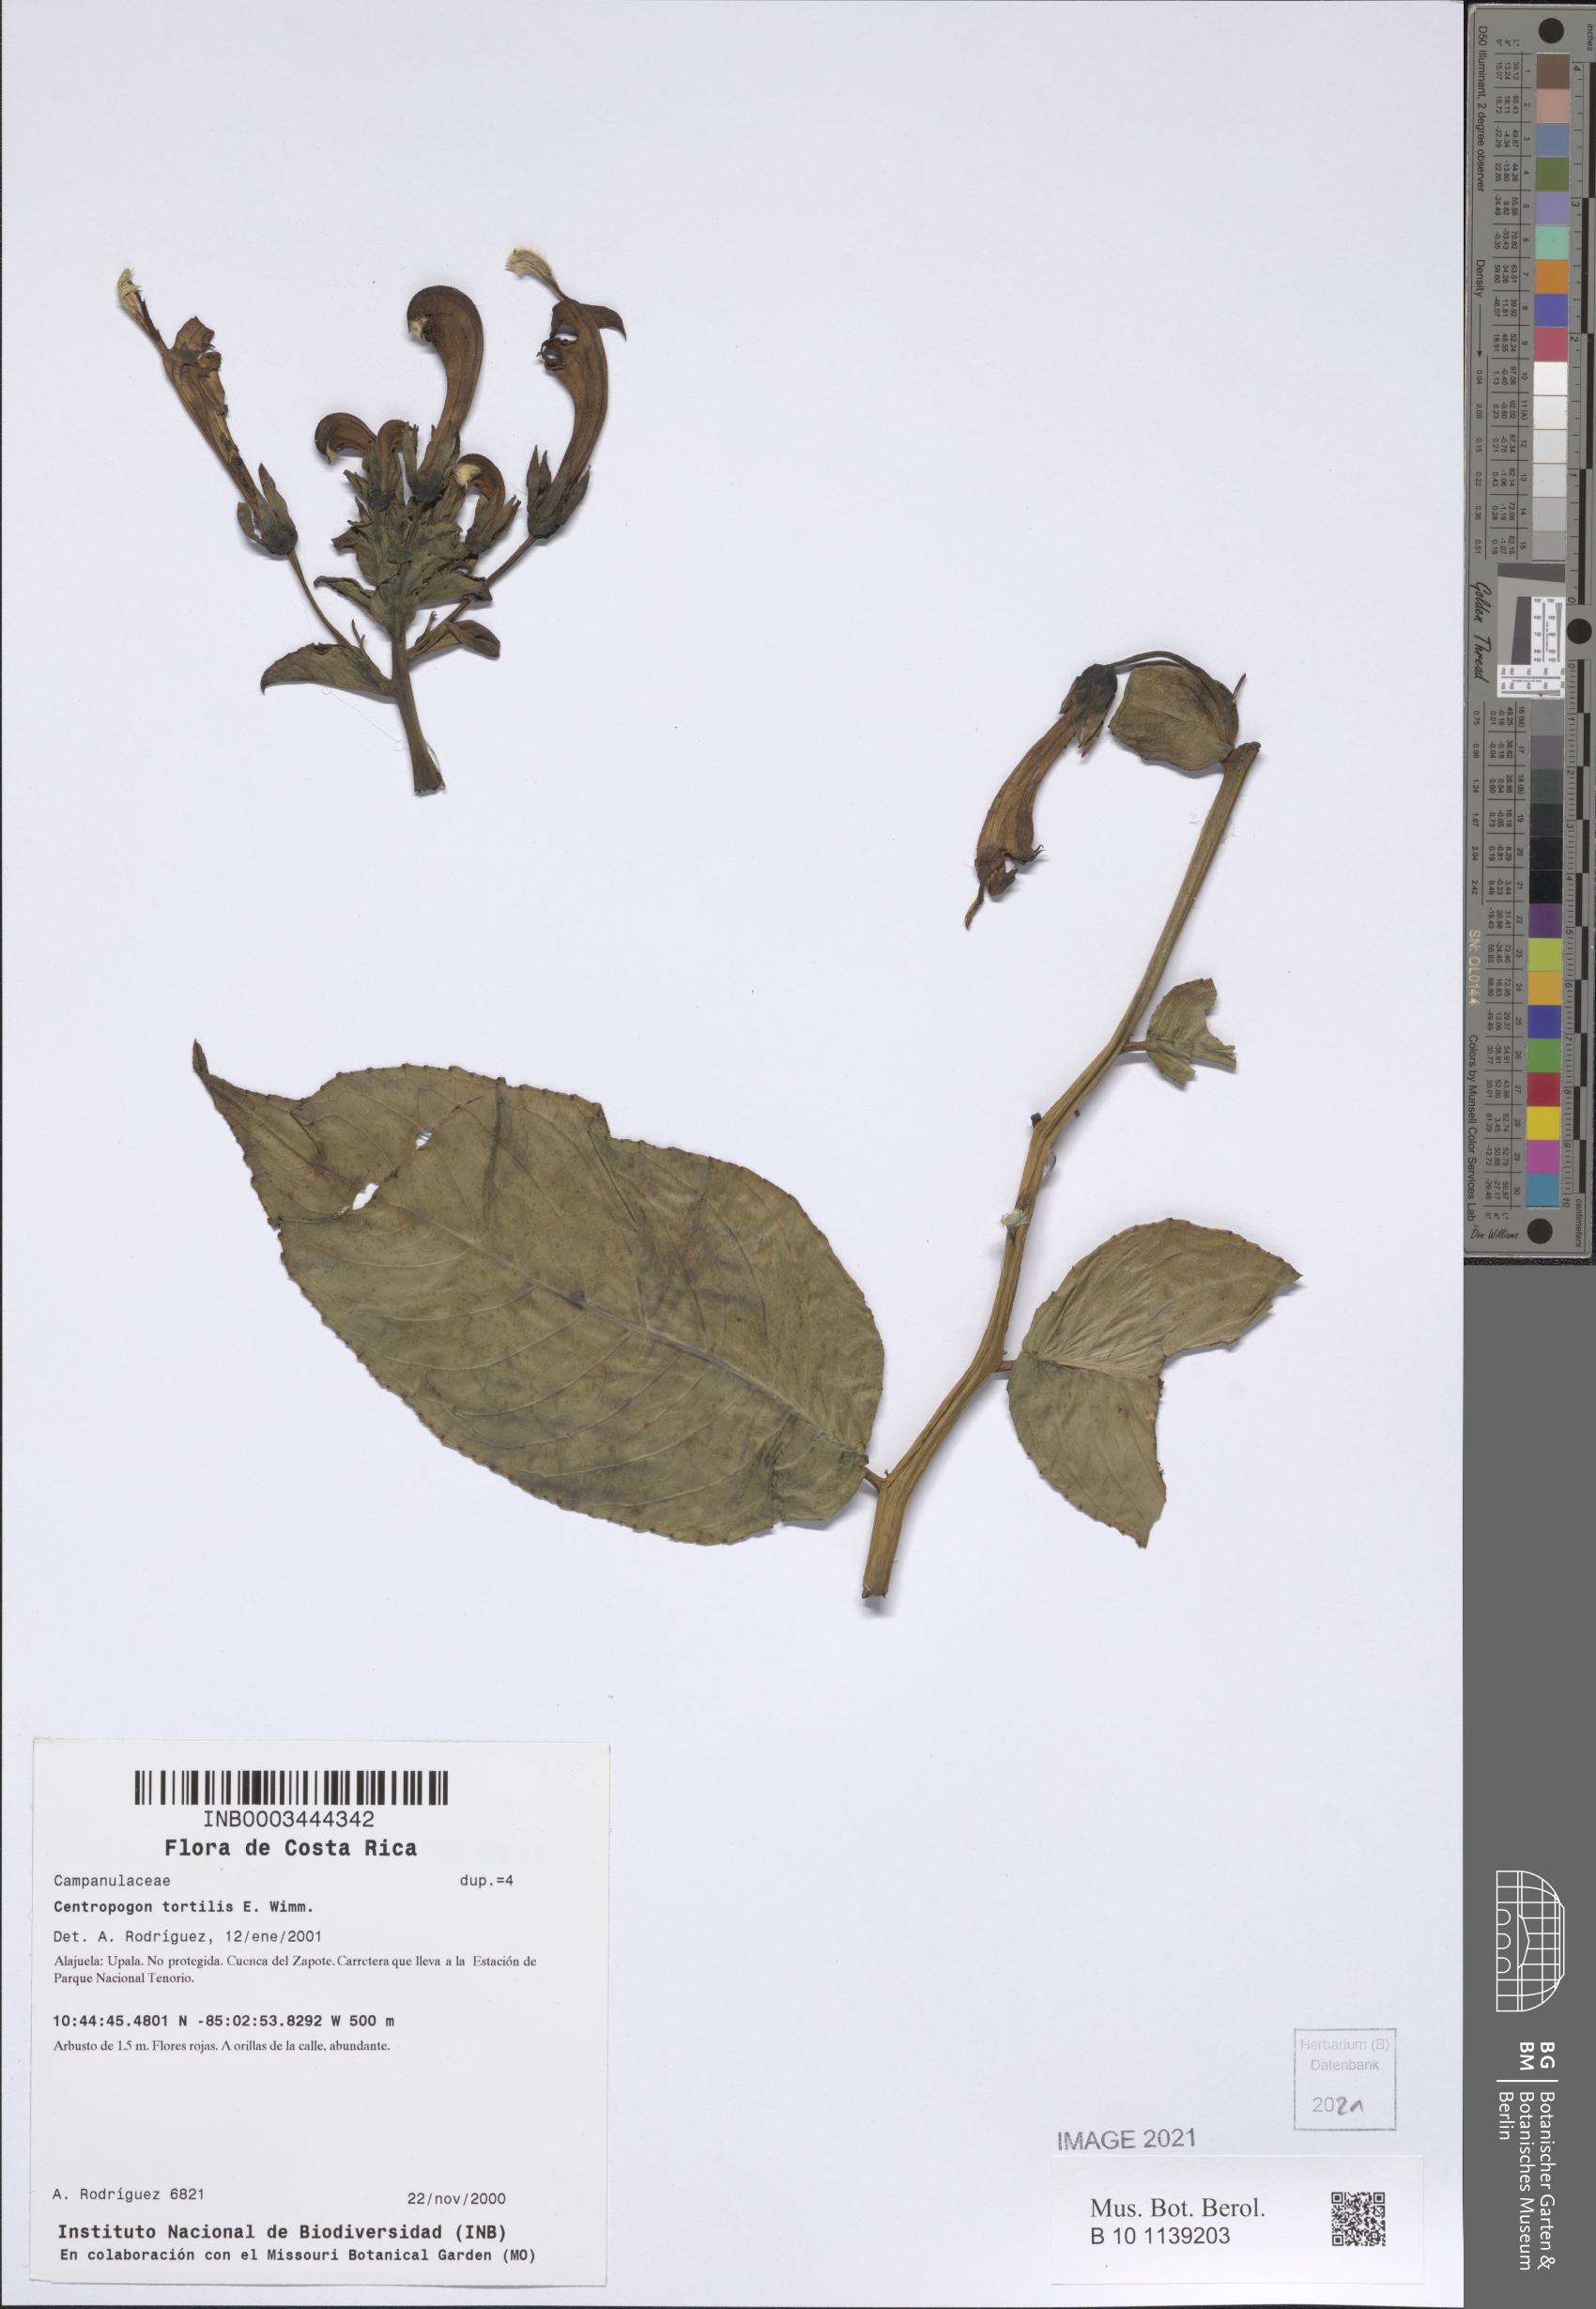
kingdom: Plantae
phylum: Tracheophyta
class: Magnoliopsida
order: Asterales
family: Campanulaceae
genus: Centropogon
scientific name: Centropogon granulosus
